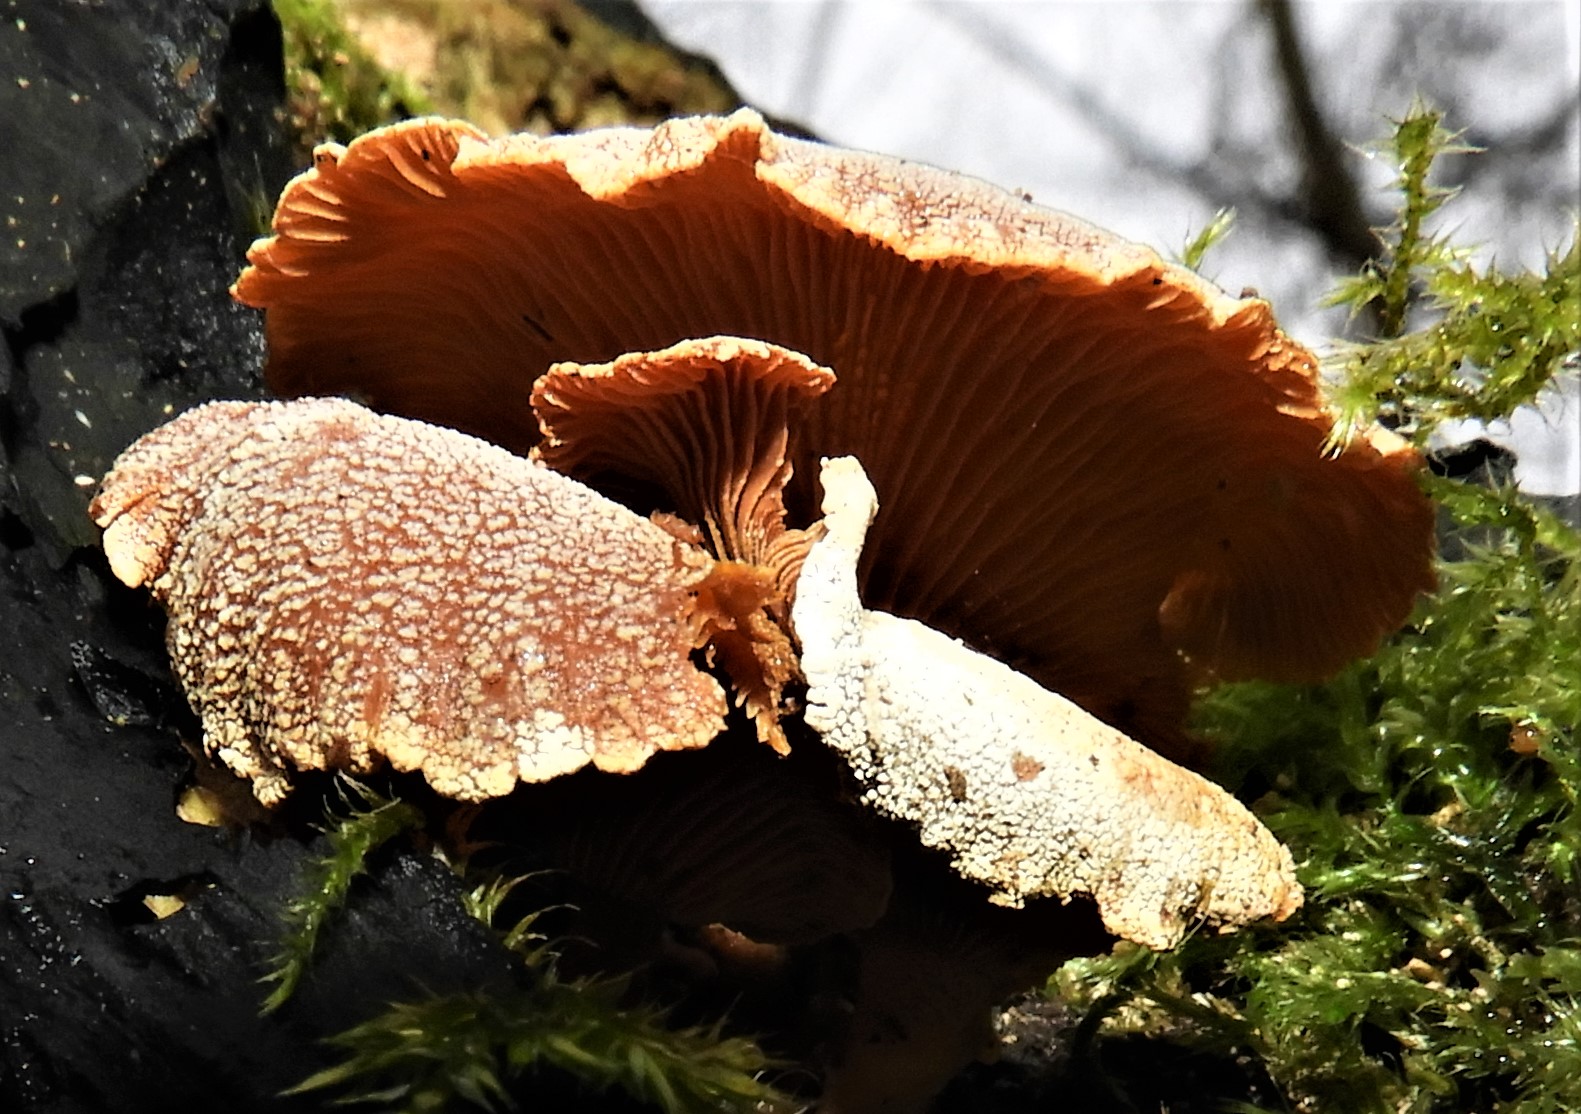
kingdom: Fungi
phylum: Basidiomycota
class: Agaricomycetes
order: Agaricales
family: Mycenaceae
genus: Panellus
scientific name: Panellus stipticus
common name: kliddet epaulethat
